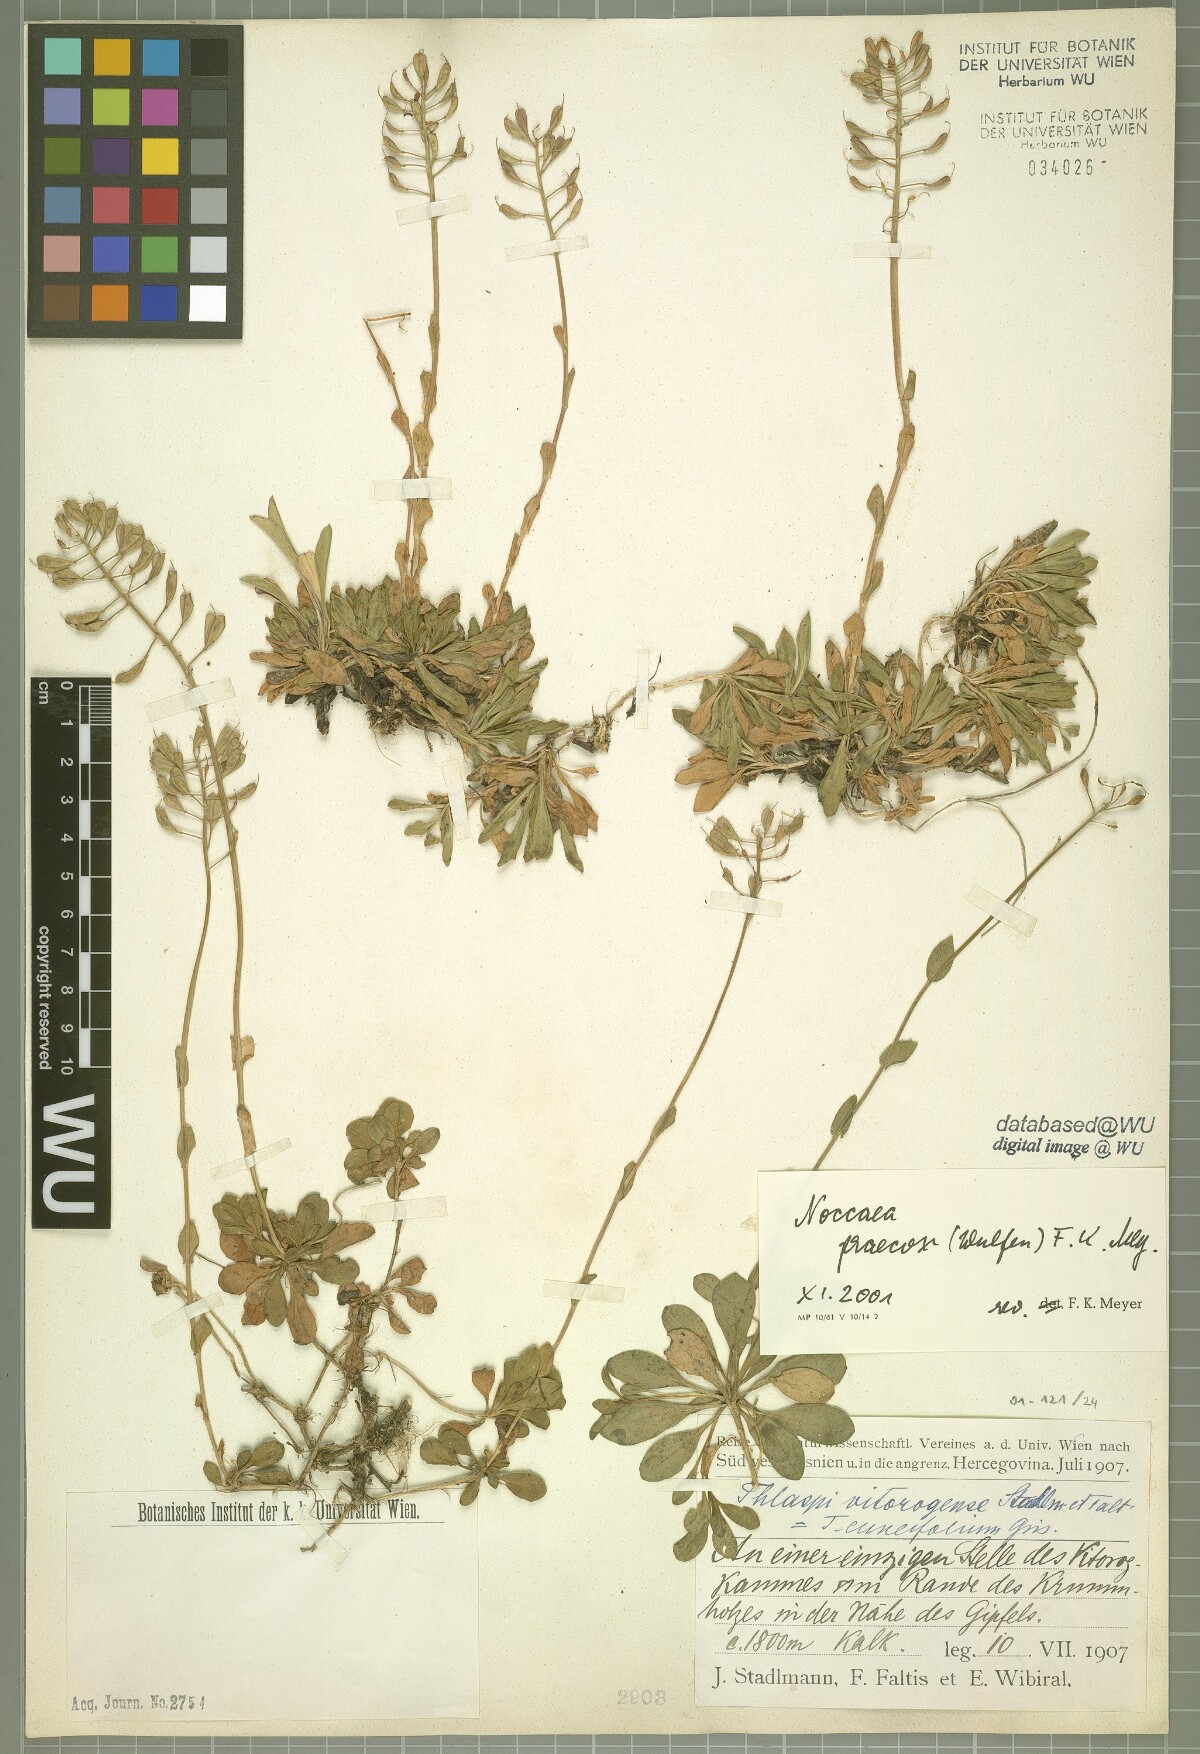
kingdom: Plantae
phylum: Tracheophyta
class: Magnoliopsida
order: Brassicales
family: Brassicaceae
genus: Noccaea
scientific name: Noccaea praecox
